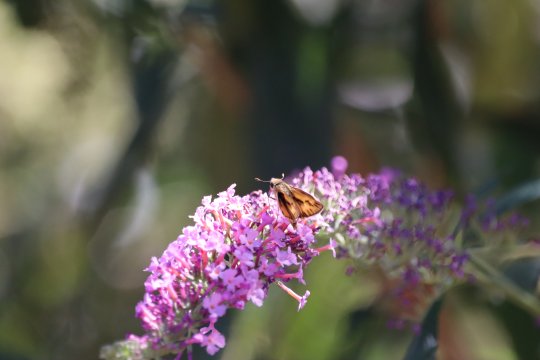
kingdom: Animalia
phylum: Arthropoda
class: Insecta
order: Lepidoptera
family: Hesperiidae
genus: Hylephila
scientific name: Hylephila phyleus
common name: Fiery Skipper
